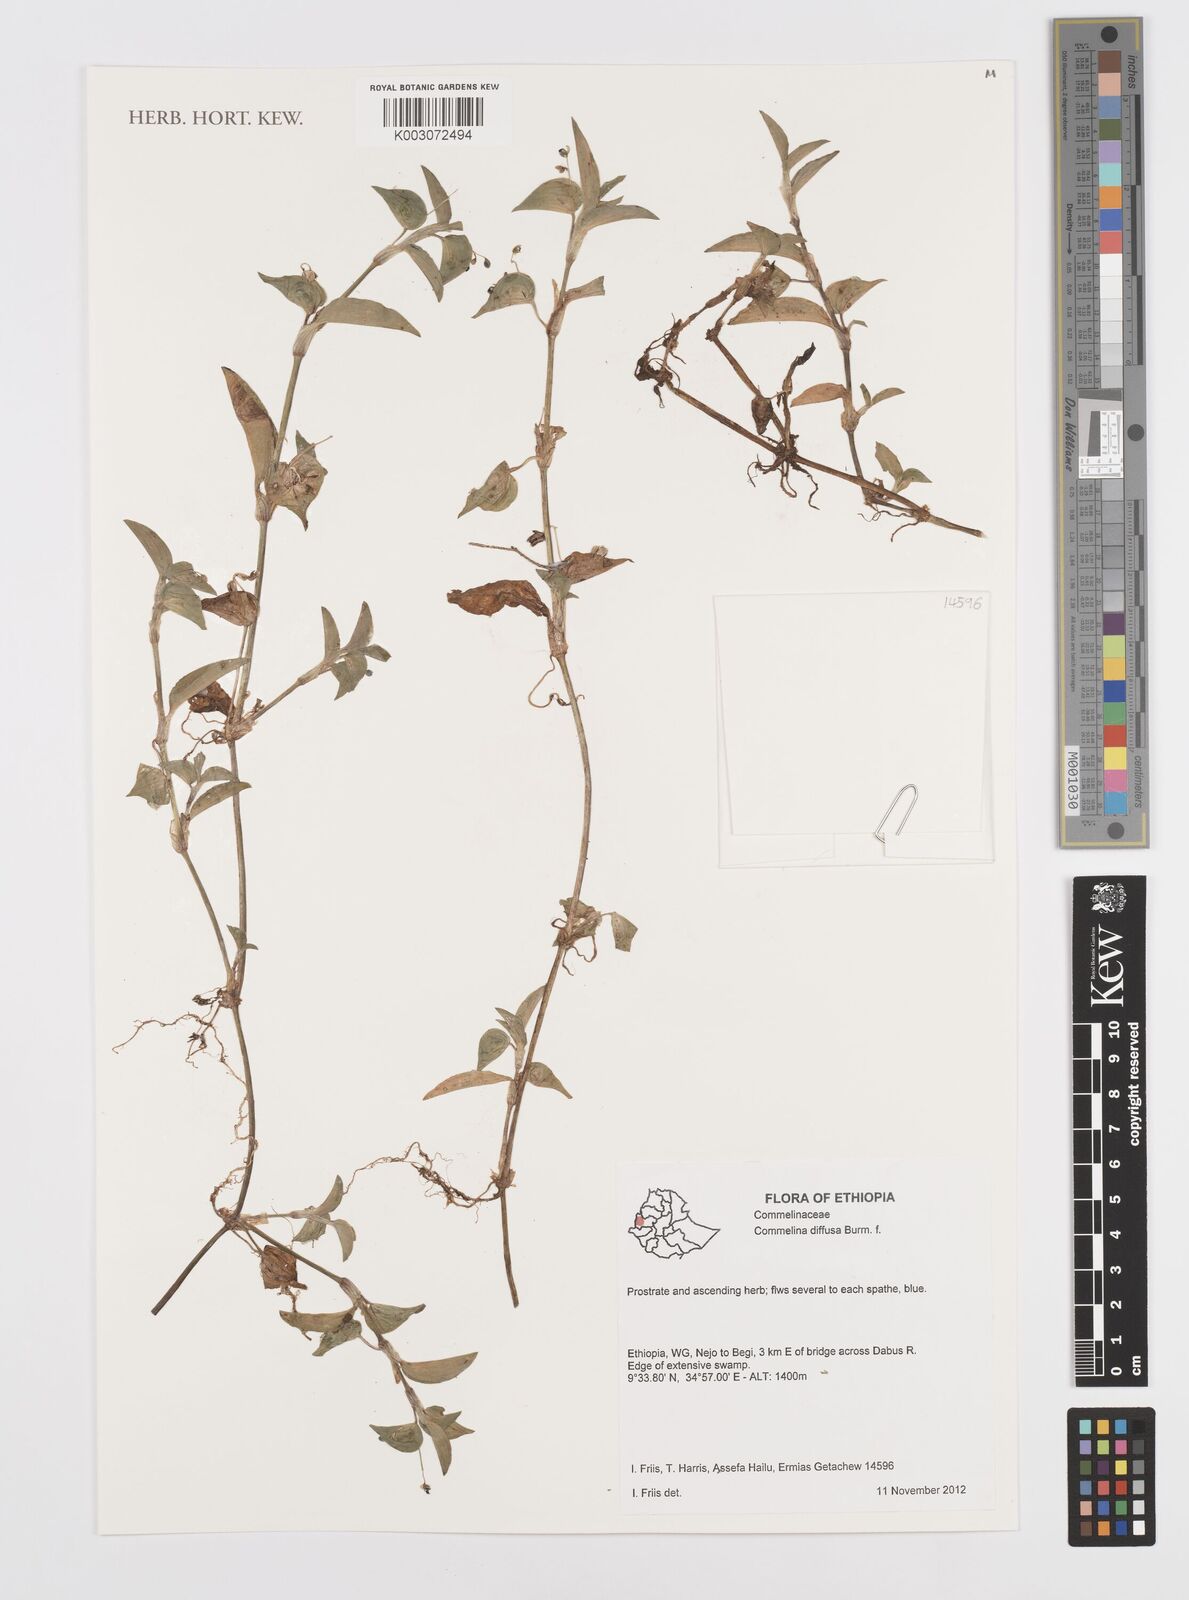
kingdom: Plantae
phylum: Tracheophyta
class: Liliopsida
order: Commelinales
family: Commelinaceae
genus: Commelina
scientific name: Commelina diffusa
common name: Climbing dayflower
